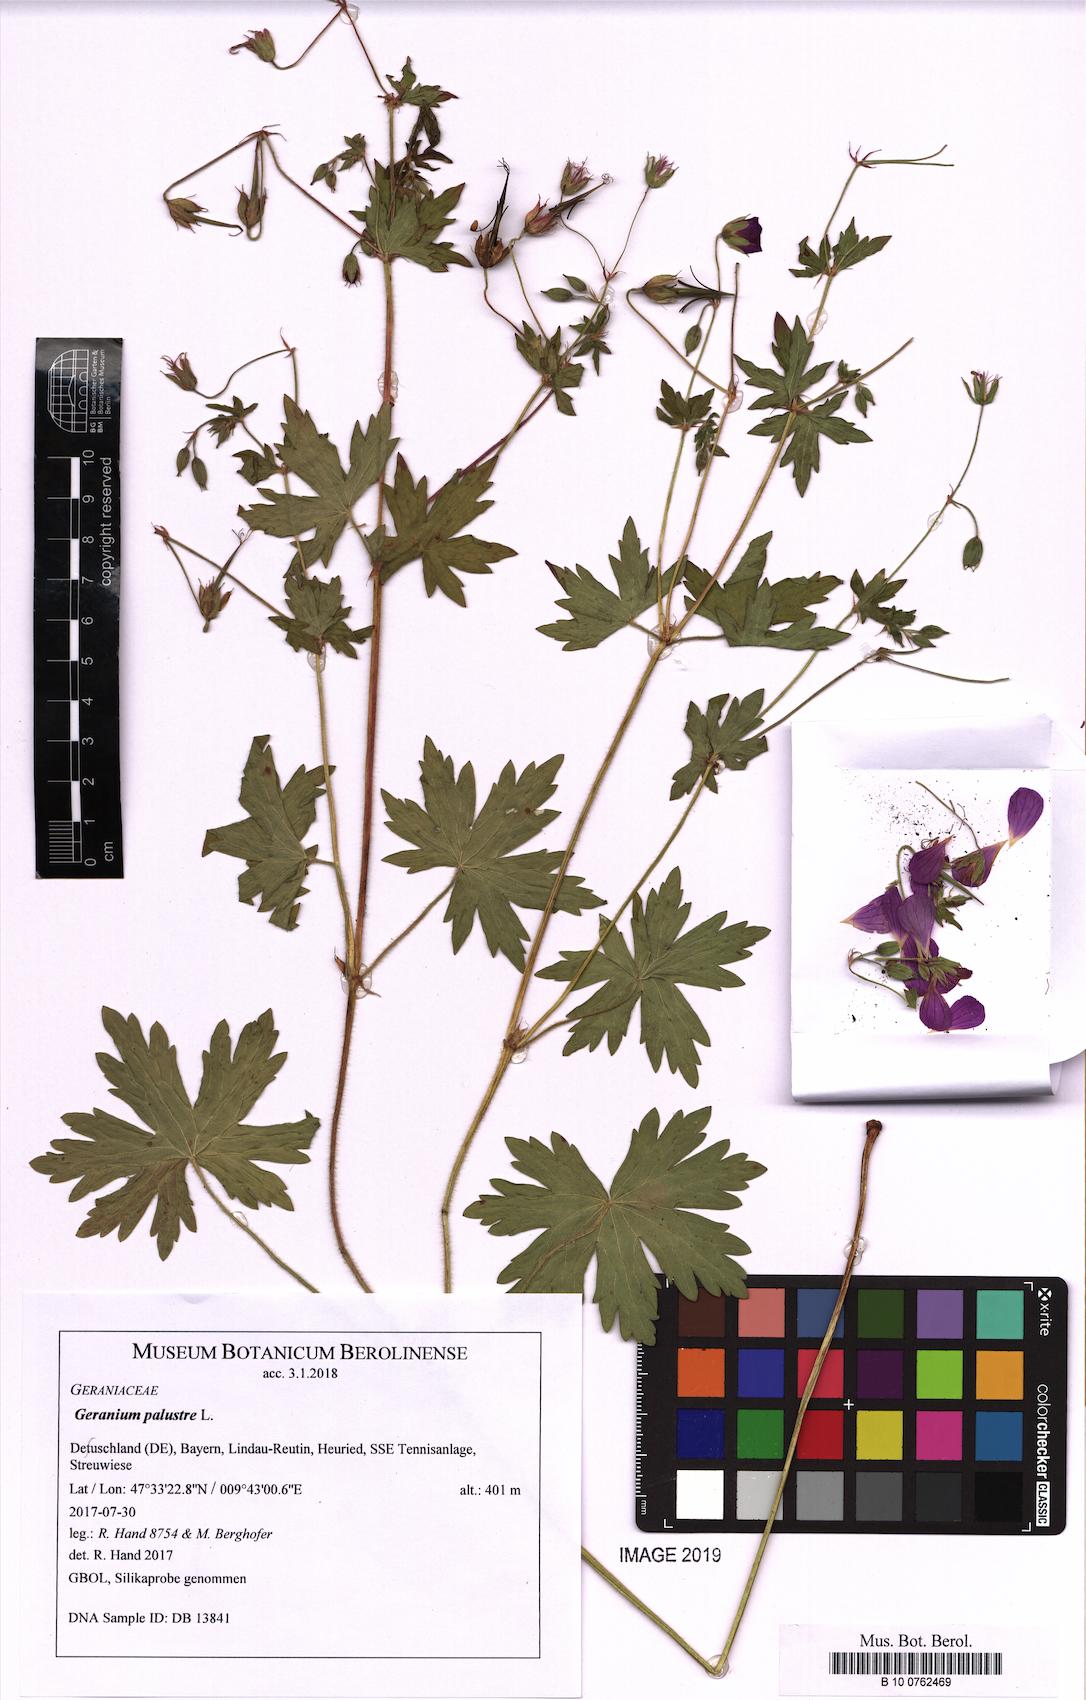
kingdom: Plantae
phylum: Tracheophyta
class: Magnoliopsida
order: Geraniales
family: Geraniaceae
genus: Geranium
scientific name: Geranium palustre
